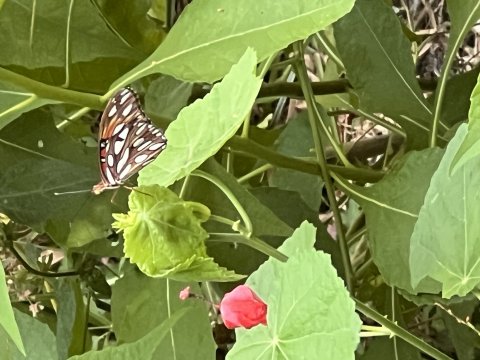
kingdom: Animalia
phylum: Arthropoda
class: Insecta
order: Lepidoptera
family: Nymphalidae
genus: Dione
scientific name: Dione vanillae
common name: Gulf Fritillary
